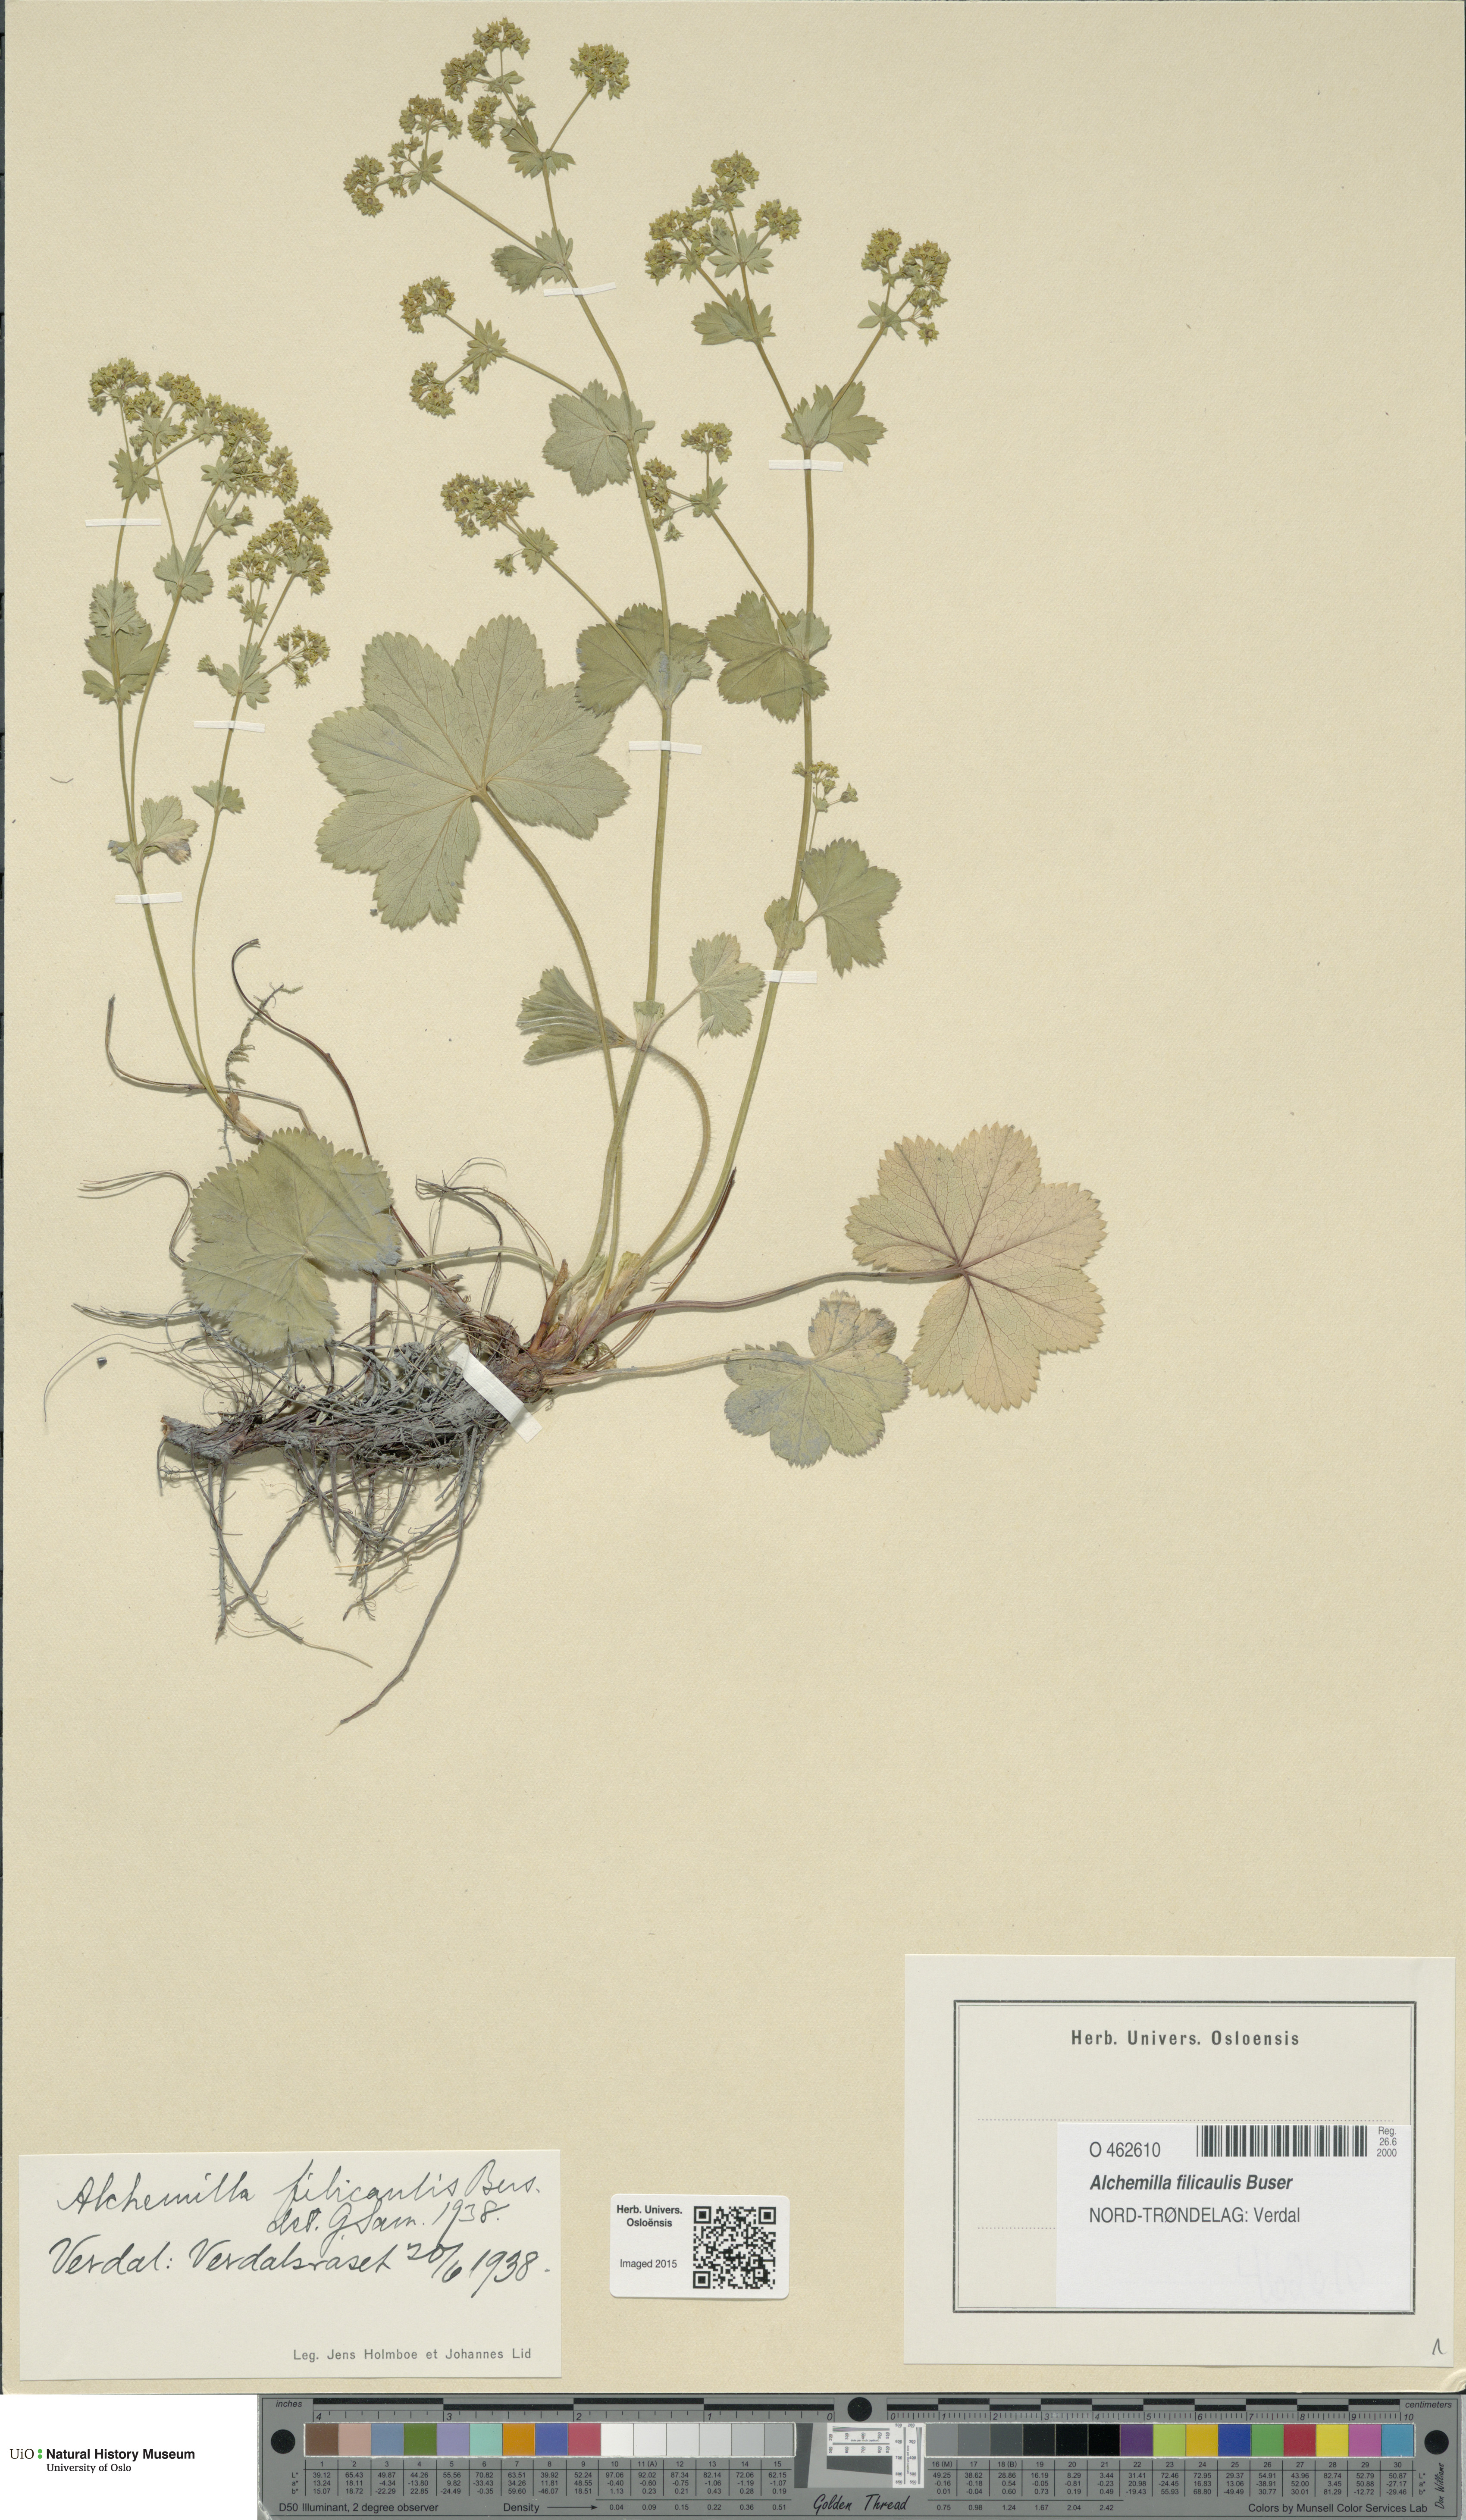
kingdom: Plantae
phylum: Tracheophyta
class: Magnoliopsida
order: Rosales
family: Rosaceae
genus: Alchemilla
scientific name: Alchemilla filicaulis
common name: Hairy lady's-mantle
